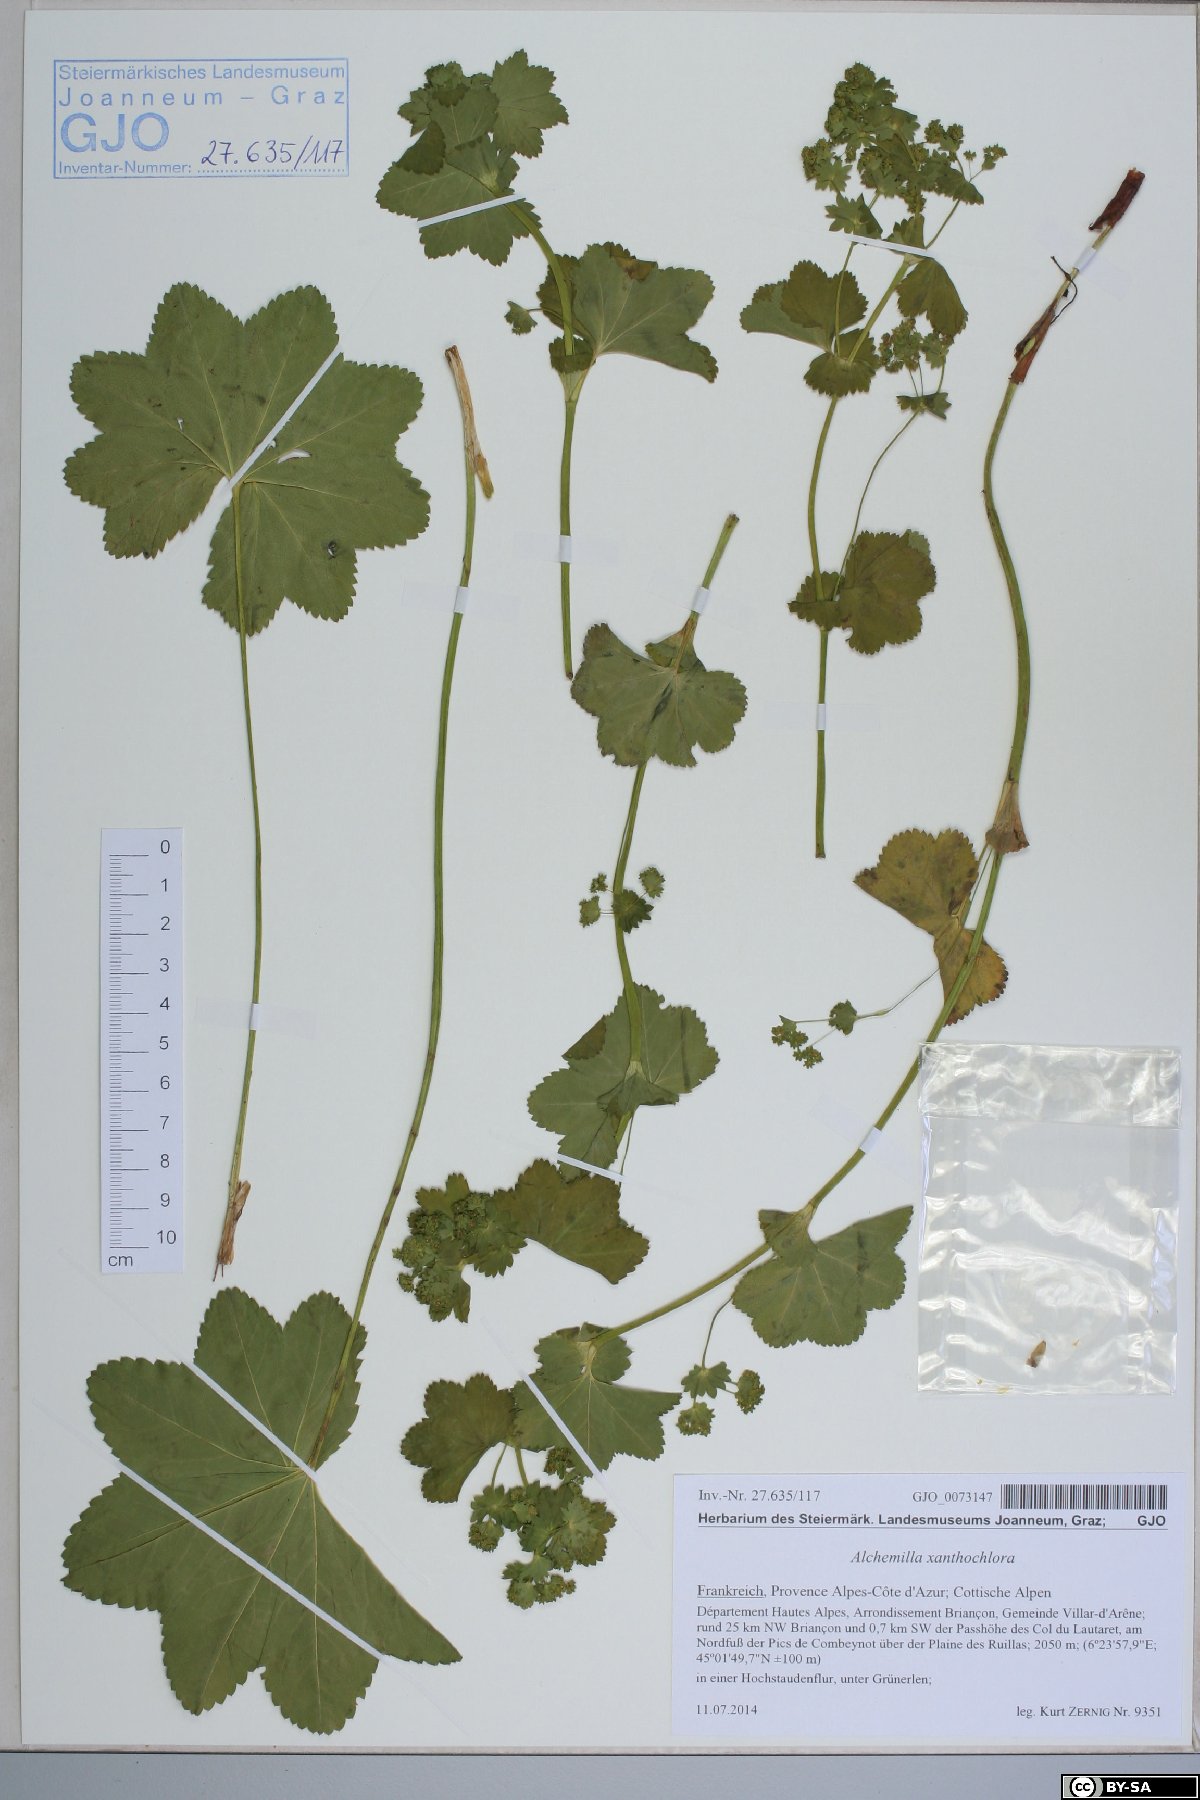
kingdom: Plantae
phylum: Tracheophyta
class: Magnoliopsida
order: Rosales
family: Rosaceae
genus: Alchemilla
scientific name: Alchemilla xanthochlora
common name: Intermediate lady's-mantle
